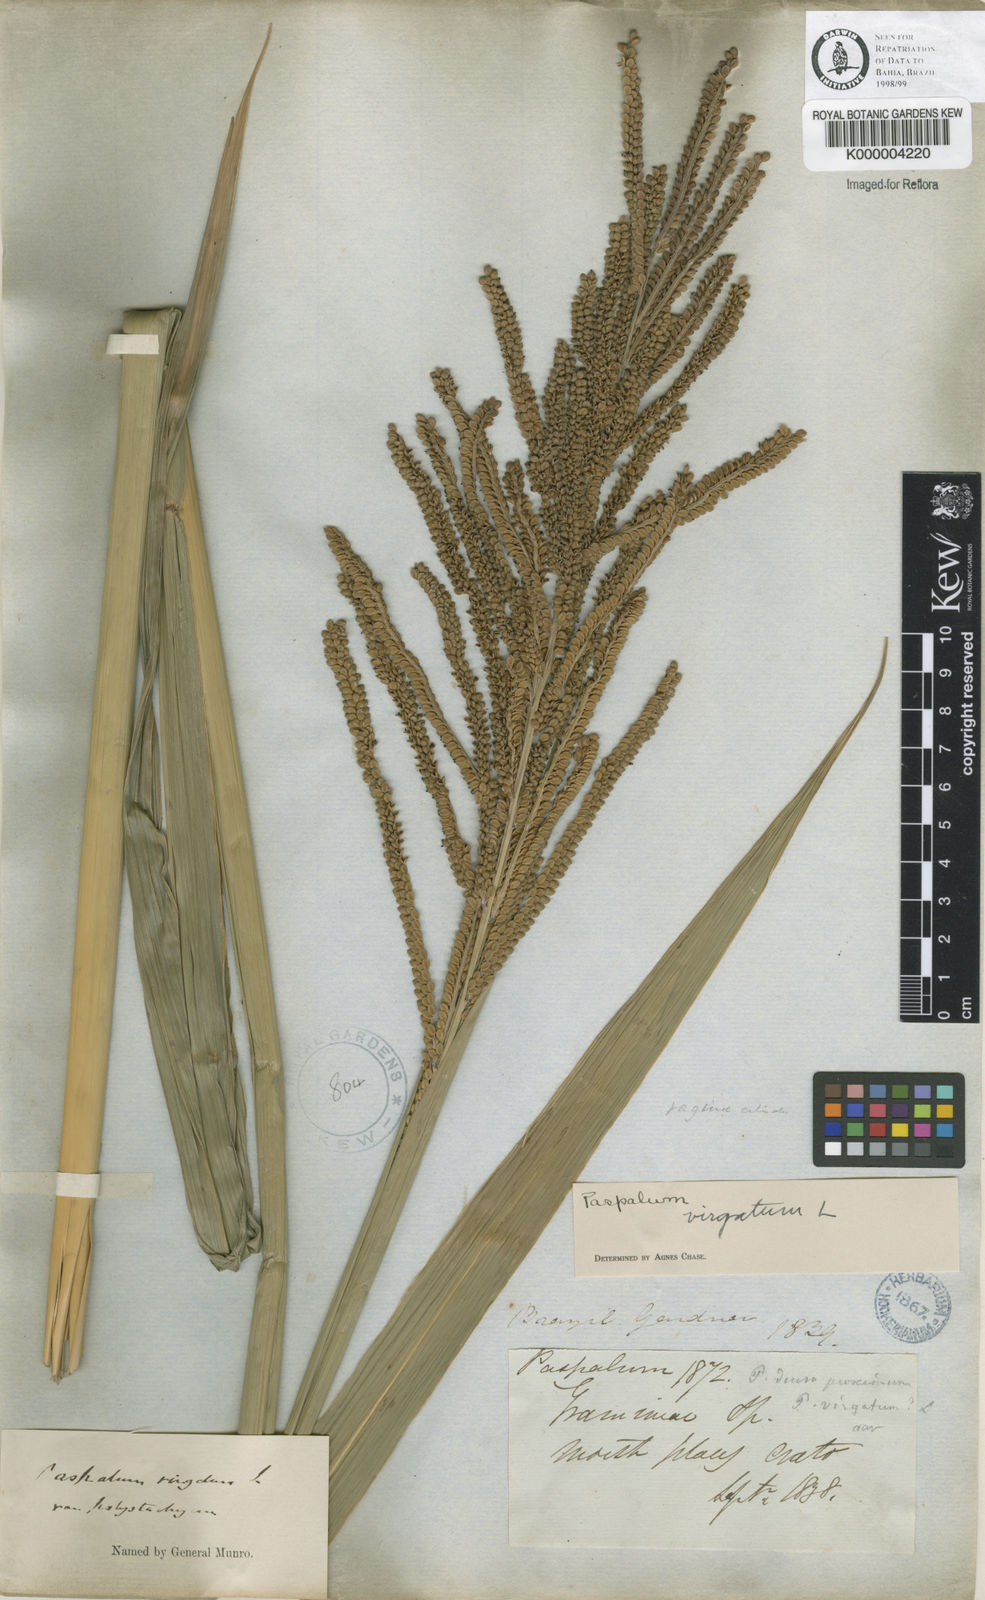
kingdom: Plantae
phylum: Tracheophyta
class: Liliopsida
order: Poales
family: Poaceae
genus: Paspalum
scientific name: Paspalum virgatum
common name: Talquezal
